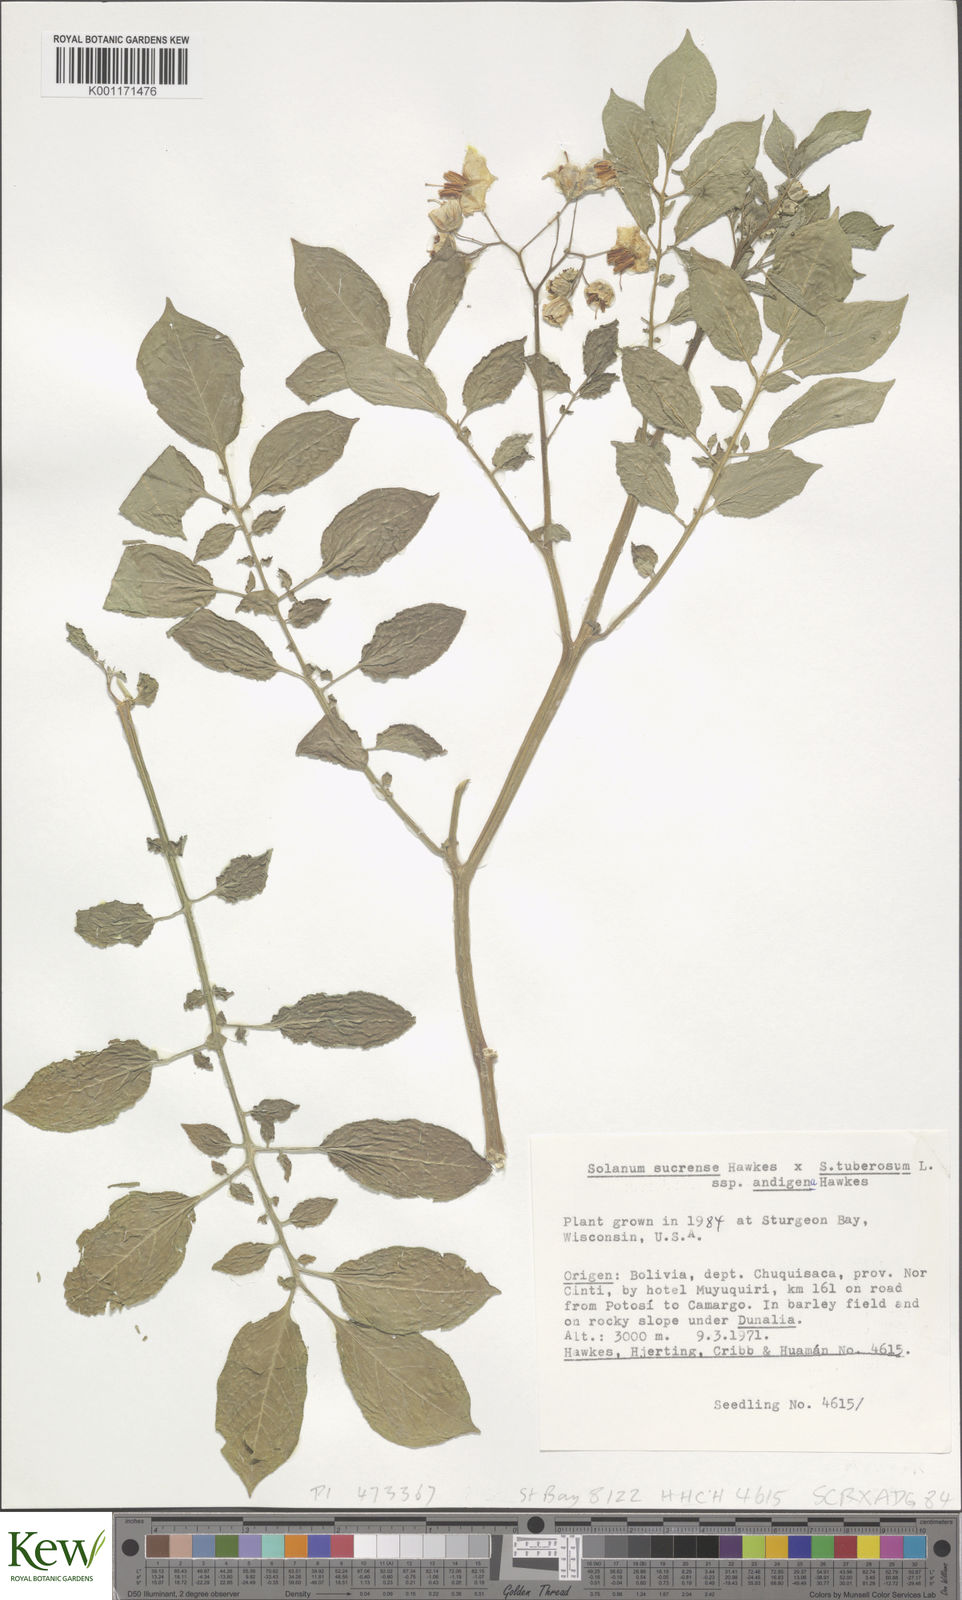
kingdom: Plantae
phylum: Tracheophyta
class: Magnoliopsida
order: Solanales
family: Solanaceae
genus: Solanum
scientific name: Solanum tuberosum
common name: Potato
